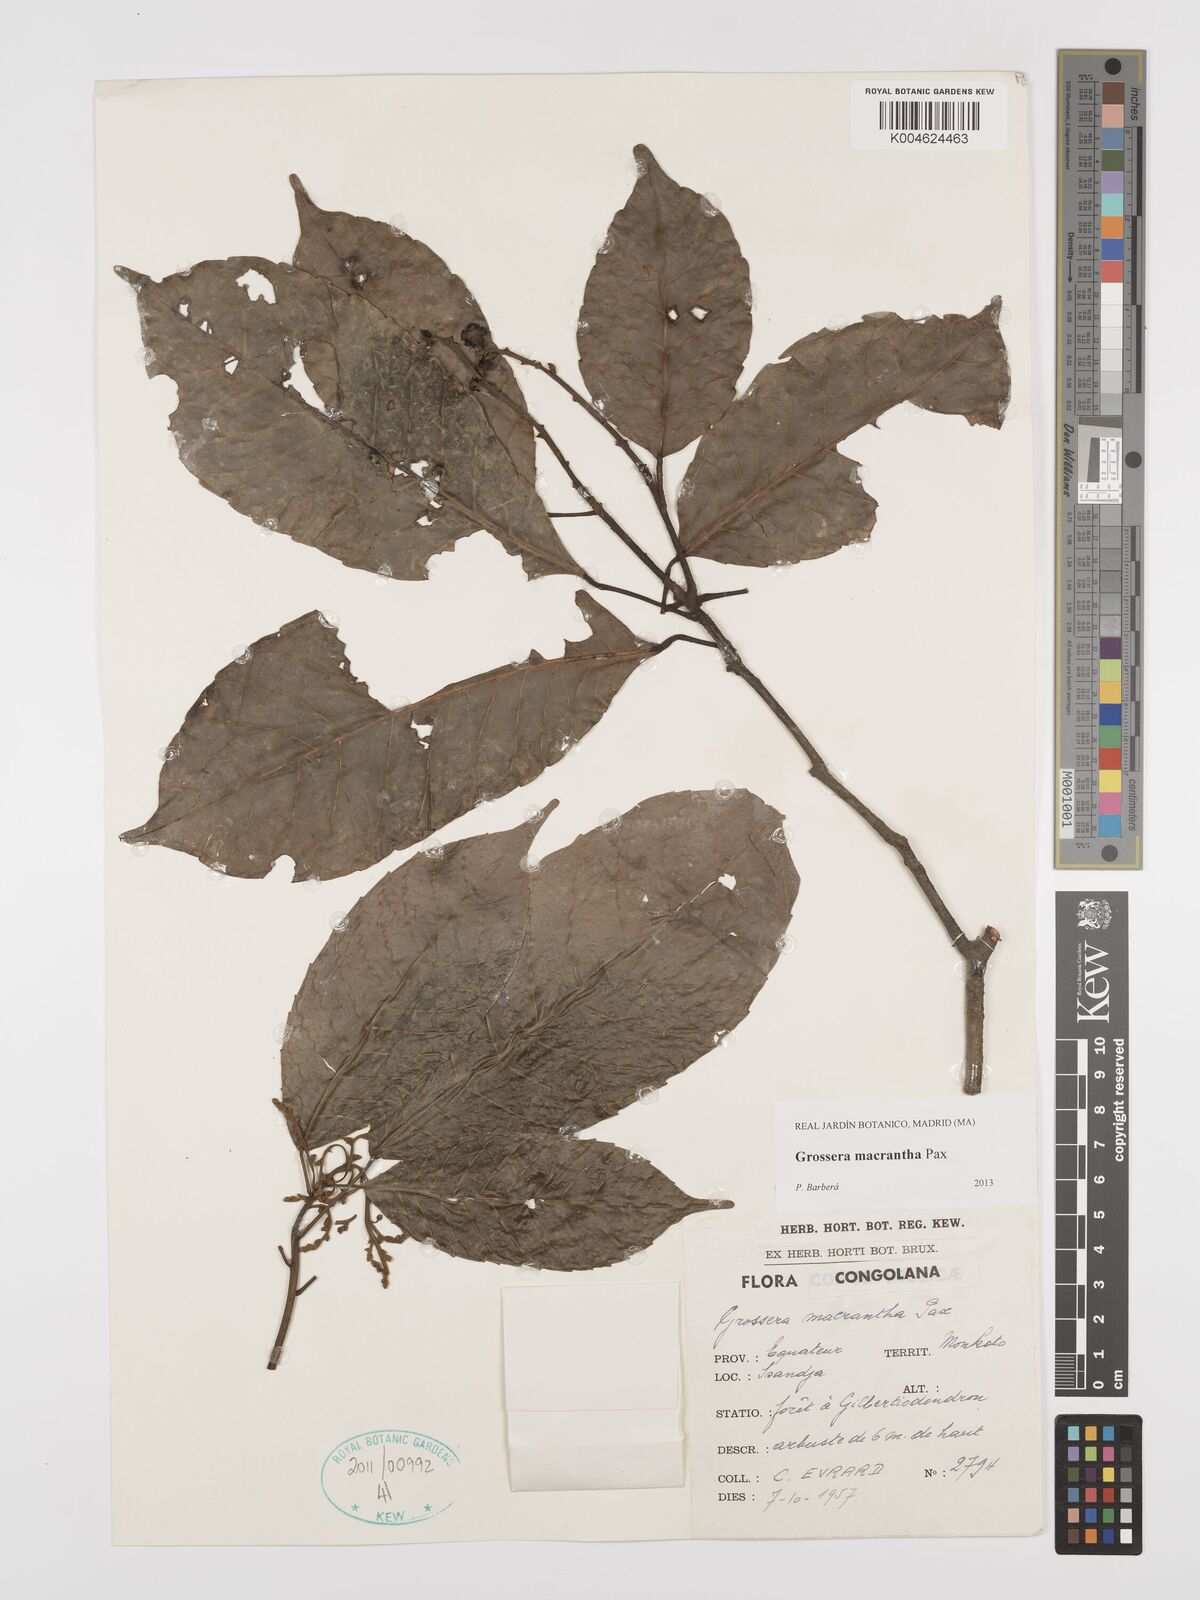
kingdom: Plantae
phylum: Tracheophyta
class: Magnoliopsida
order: Malpighiales
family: Euphorbiaceae
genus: Grossera
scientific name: Grossera macrantha
